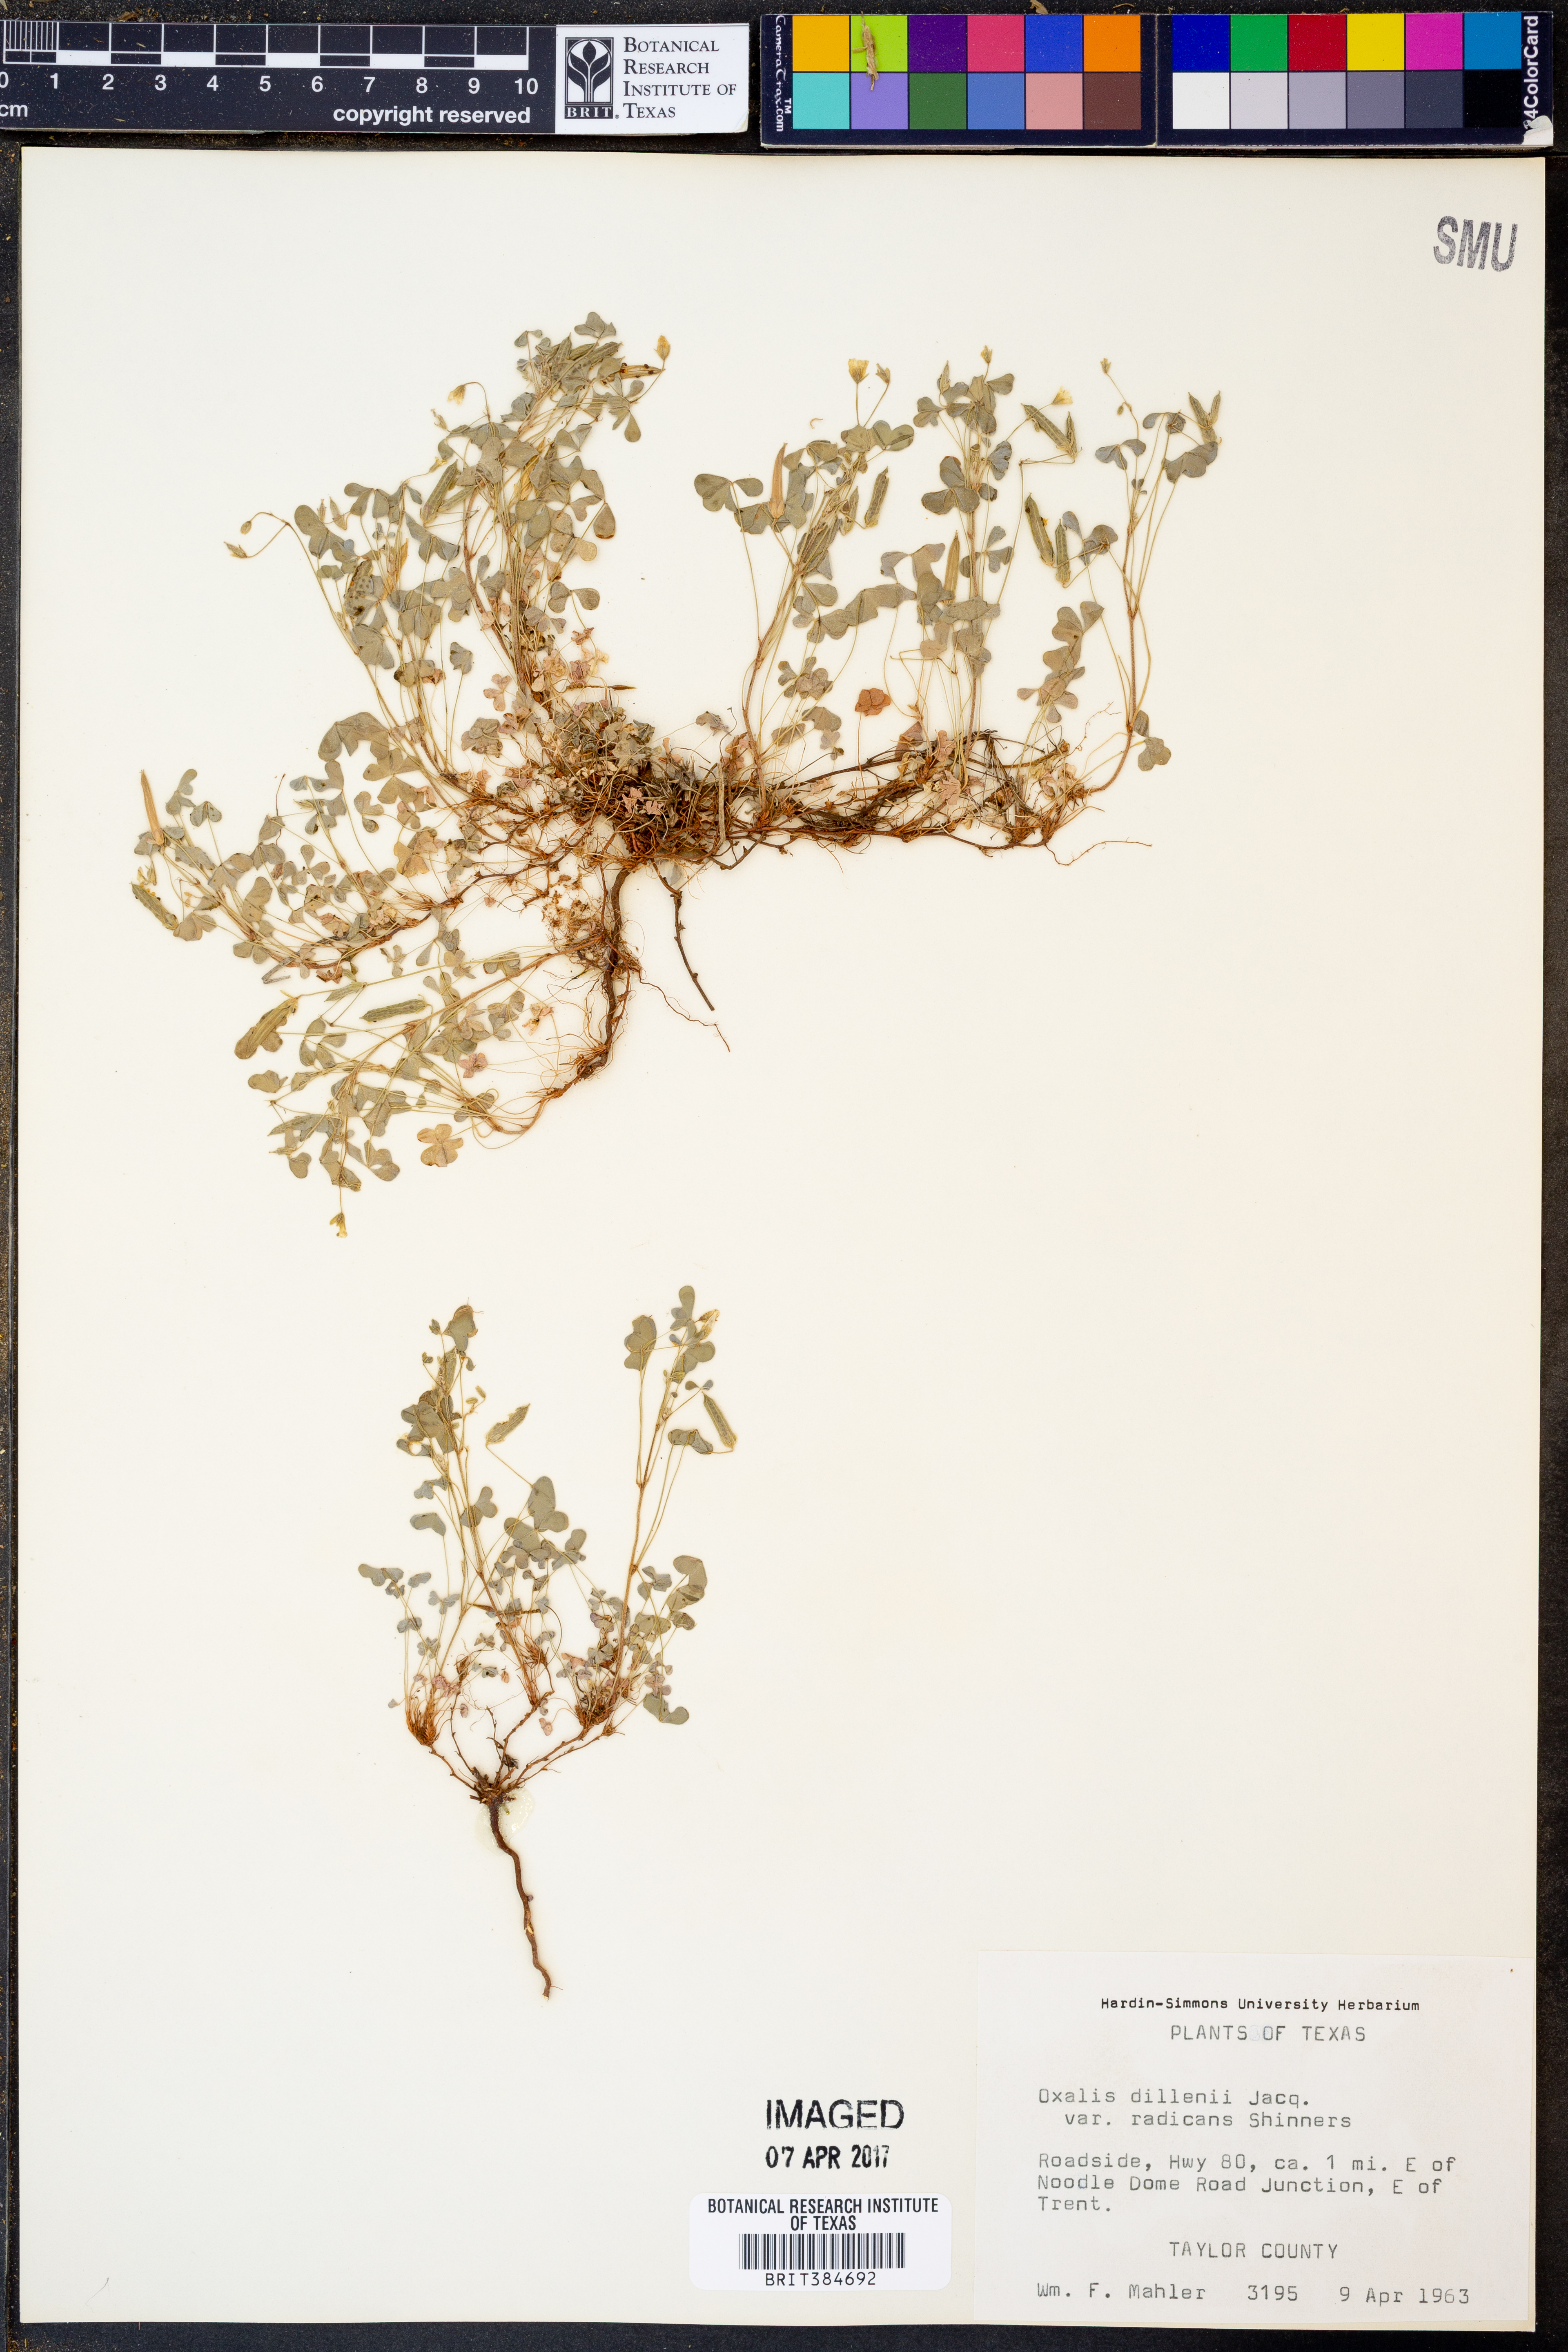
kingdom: Plantae
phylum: Tracheophyta
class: Magnoliopsida
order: Oxalidales
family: Oxalidaceae
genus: Oxalis
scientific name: Oxalis dillenii
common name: Sussex yellow-sorrel
